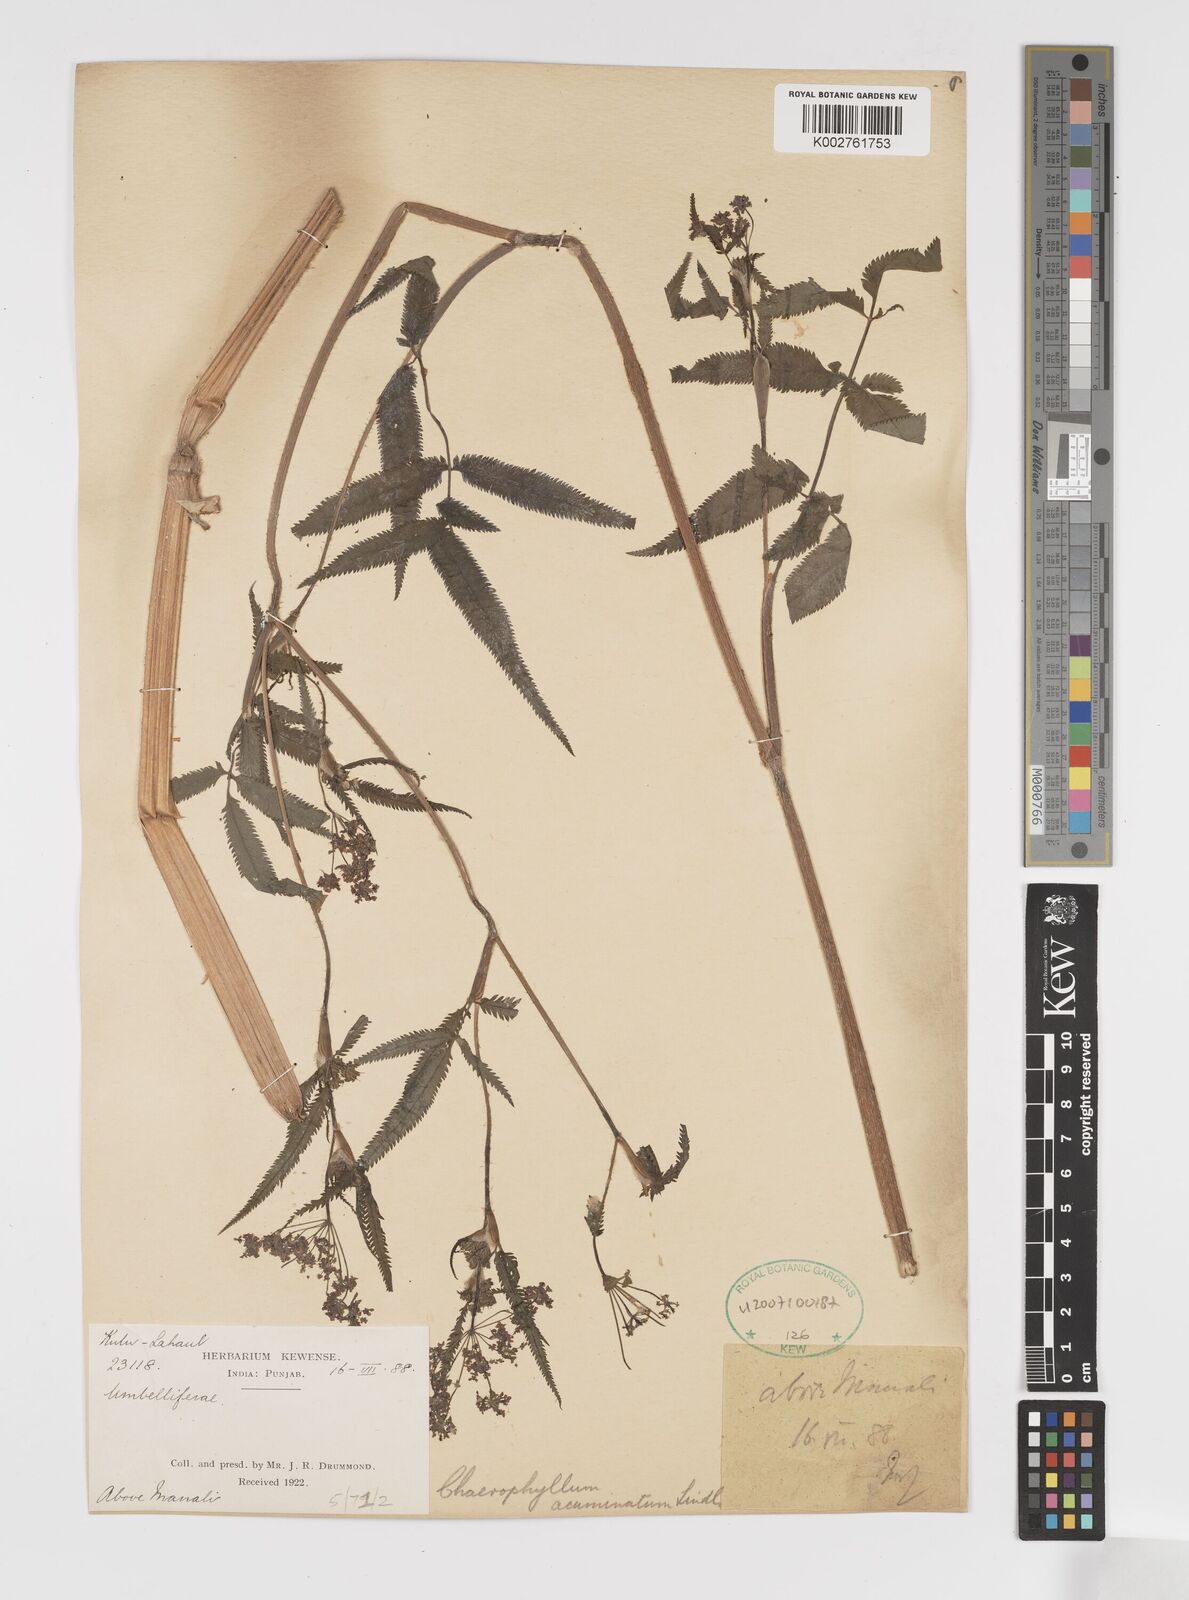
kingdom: Plantae
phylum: Tracheophyta
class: Magnoliopsida
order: Apiales
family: Apiaceae
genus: Chaerophyllum
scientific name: Chaerophyllum reflexum
